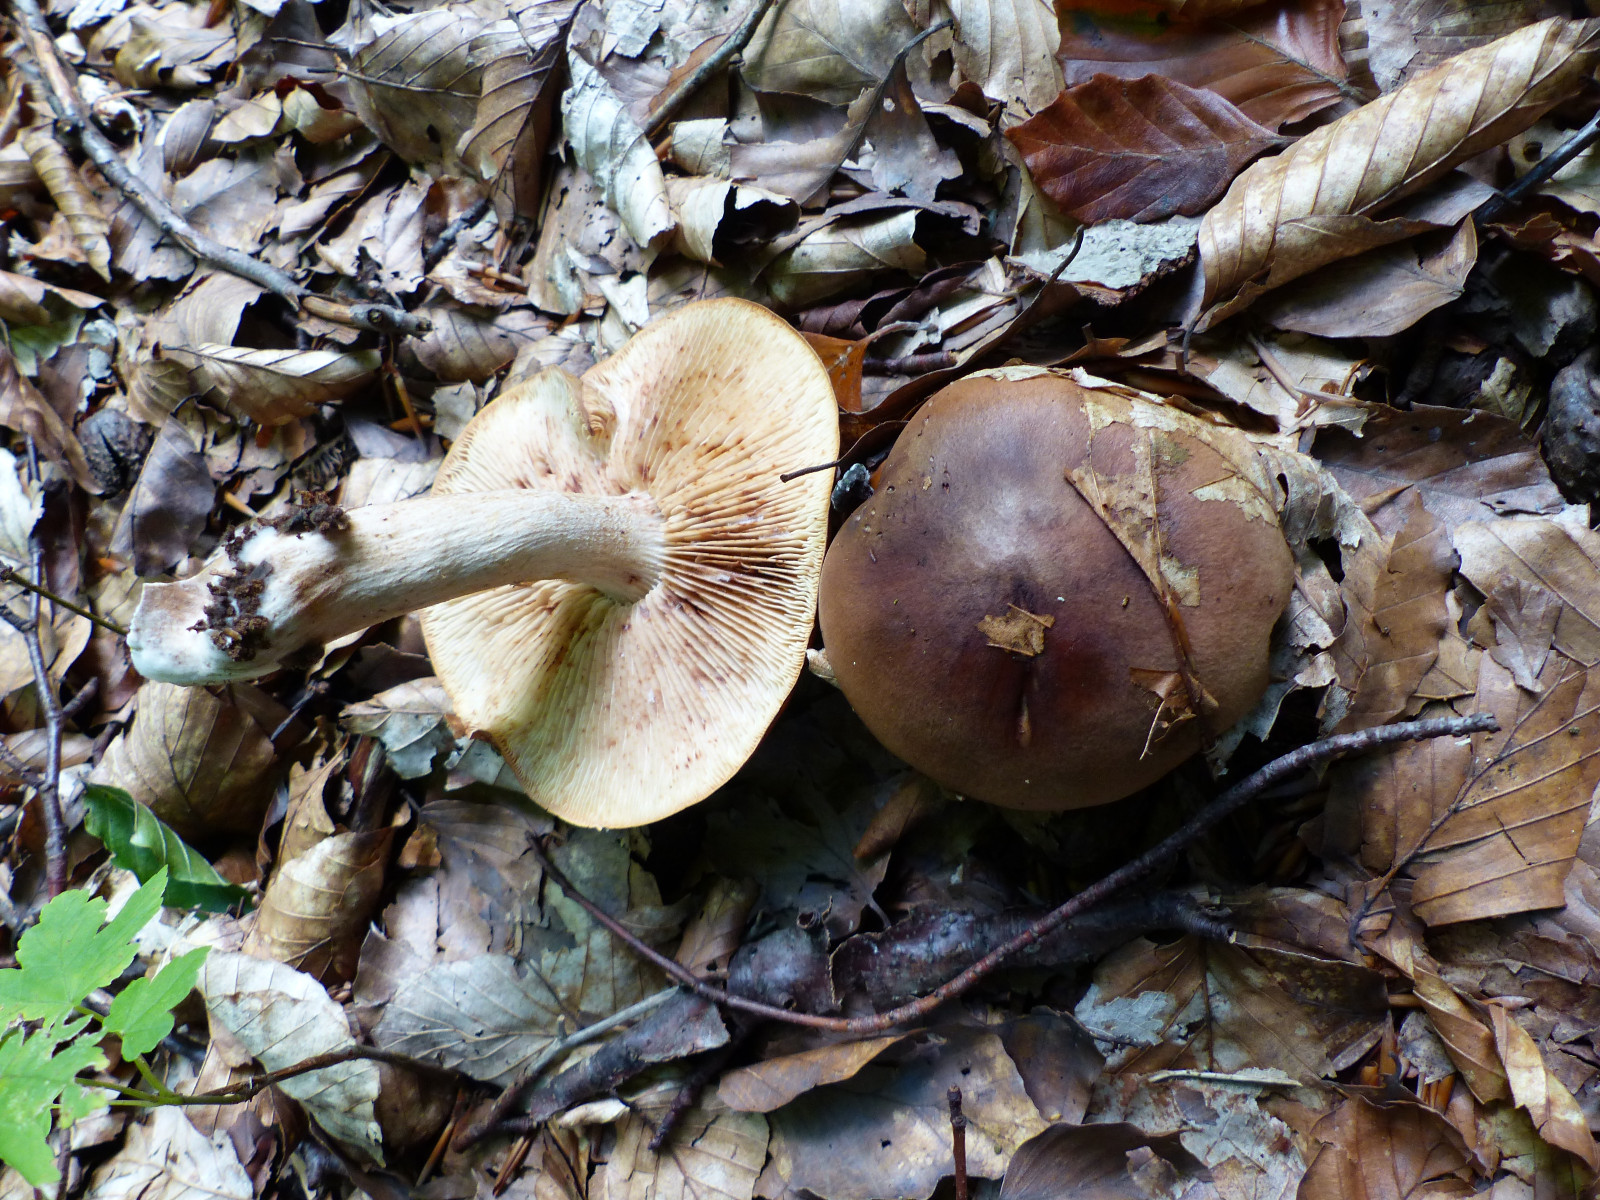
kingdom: Fungi
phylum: Basidiomycota
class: Agaricomycetes
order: Agaricales
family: Tricholomataceae
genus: Tricholoma
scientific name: Tricholoma ustale
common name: sveden ridderhat
